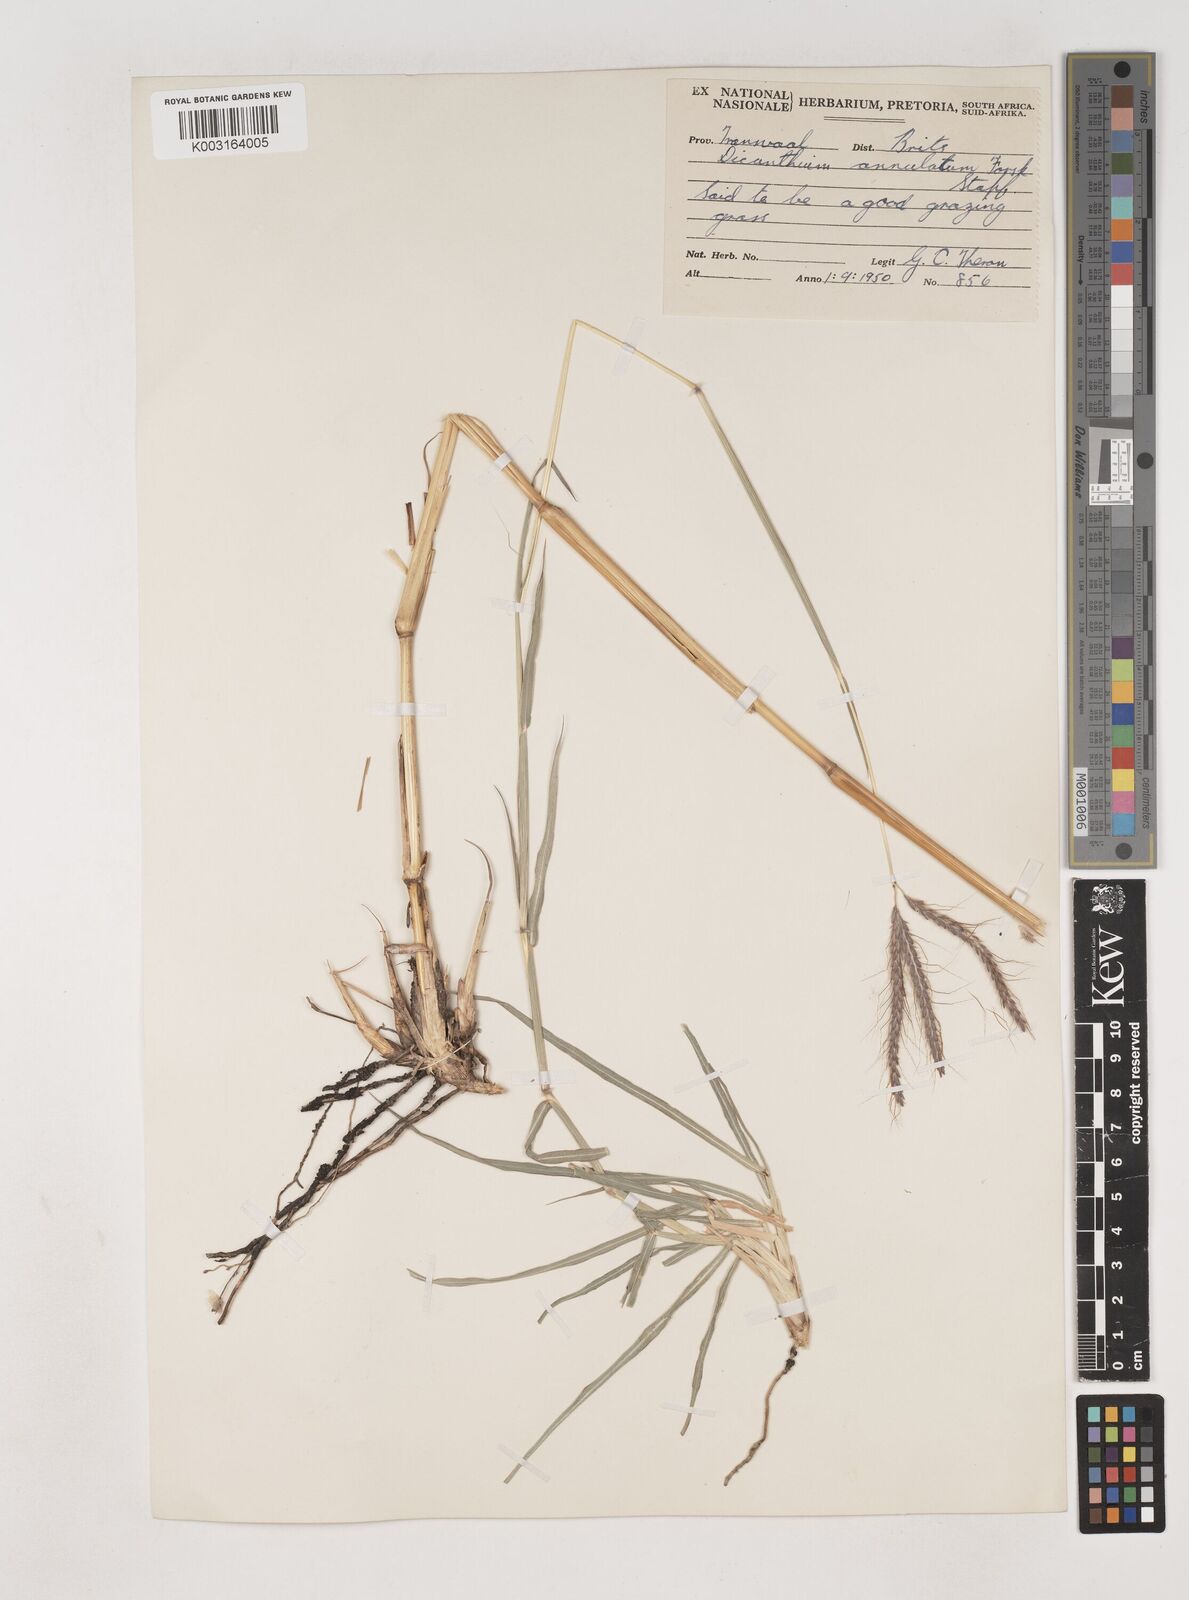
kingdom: Plantae
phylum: Tracheophyta
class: Liliopsida
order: Poales
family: Poaceae
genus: Dichanthium
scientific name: Dichanthium annulatum
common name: Kleberg's bluestem
